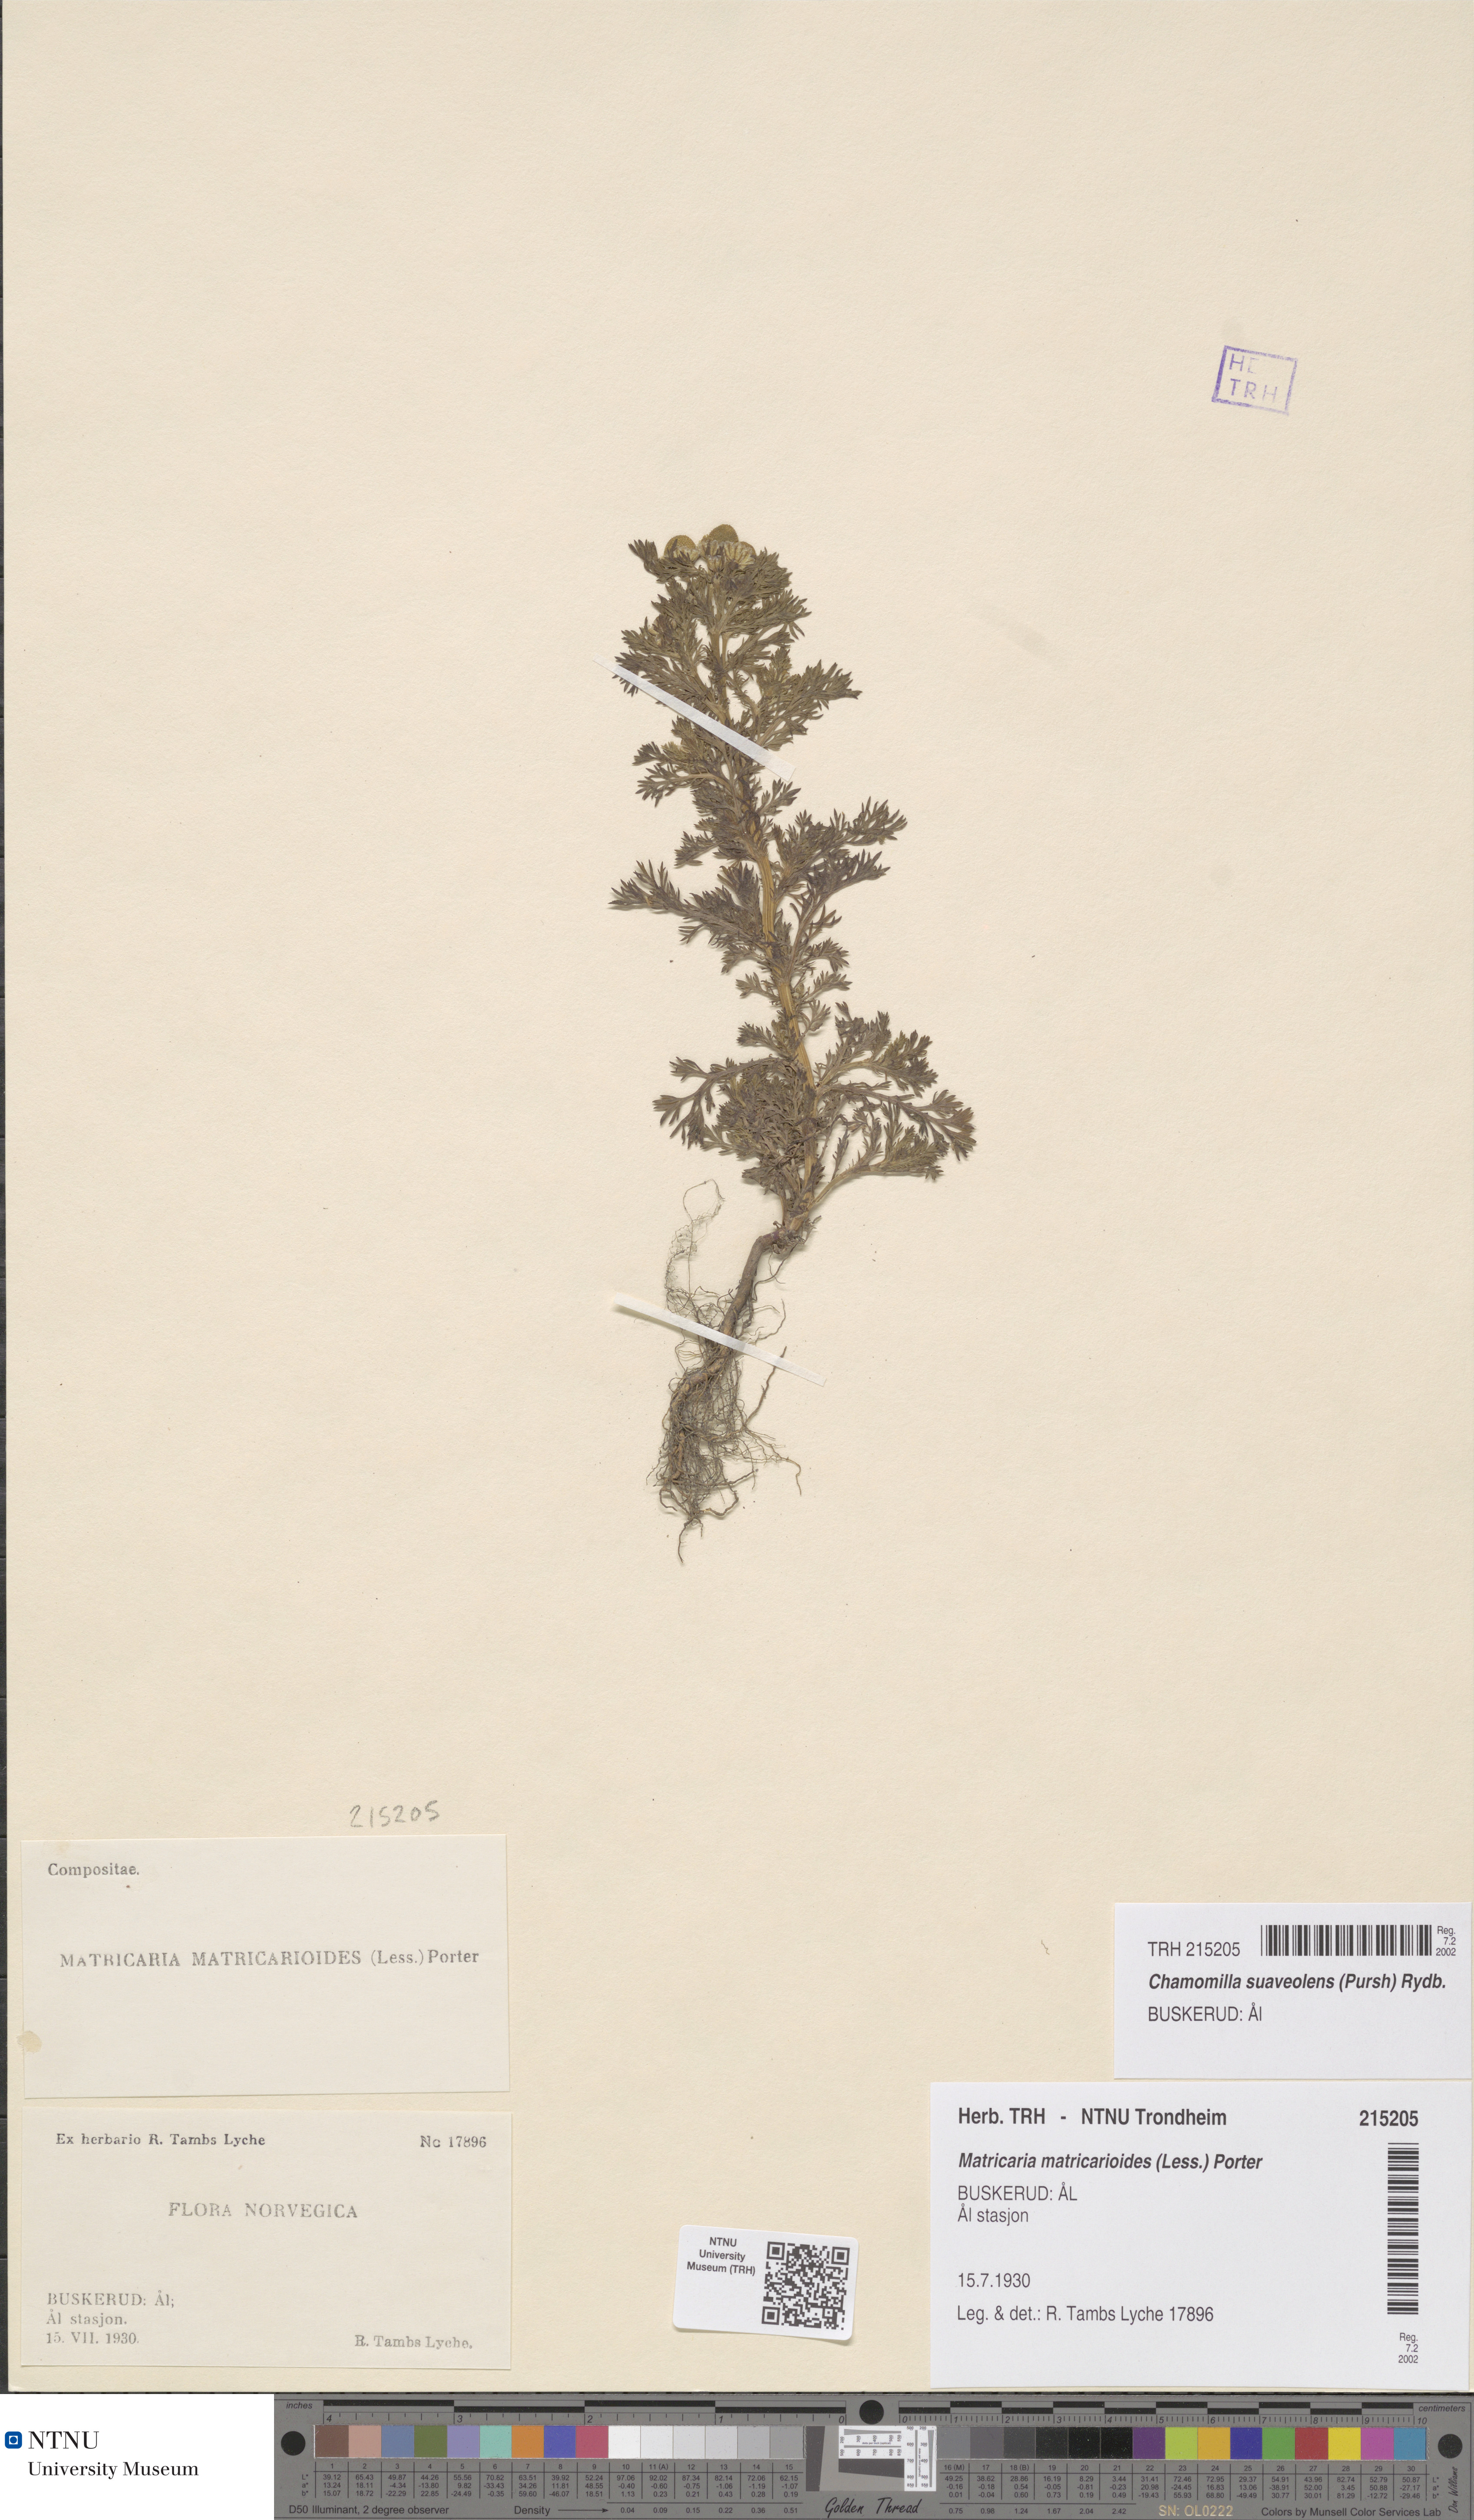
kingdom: Plantae
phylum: Tracheophyta
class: Magnoliopsida
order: Asterales
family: Asteraceae
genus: Matricaria
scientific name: Matricaria discoidea
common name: Disc mayweed
